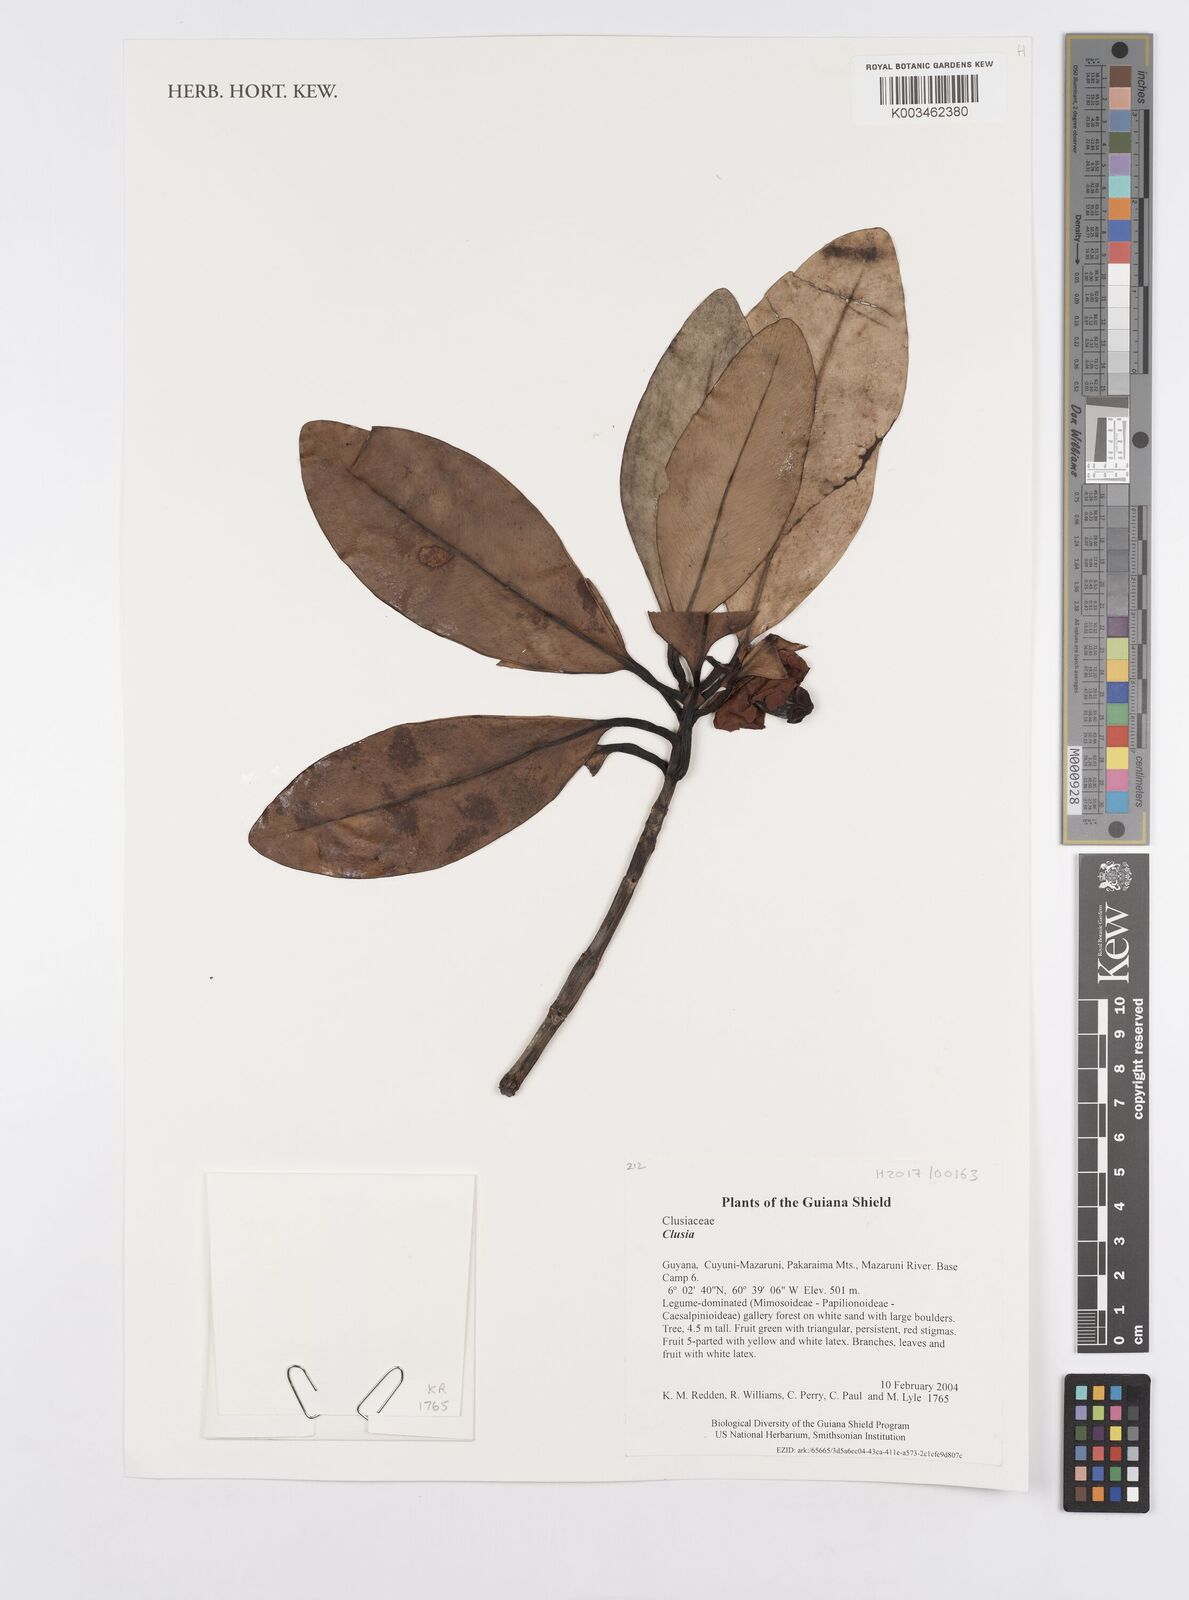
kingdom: Plantae
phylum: Tracheophyta
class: Magnoliopsida
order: Malpighiales
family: Clusiaceae
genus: Clusia
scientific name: Clusia
